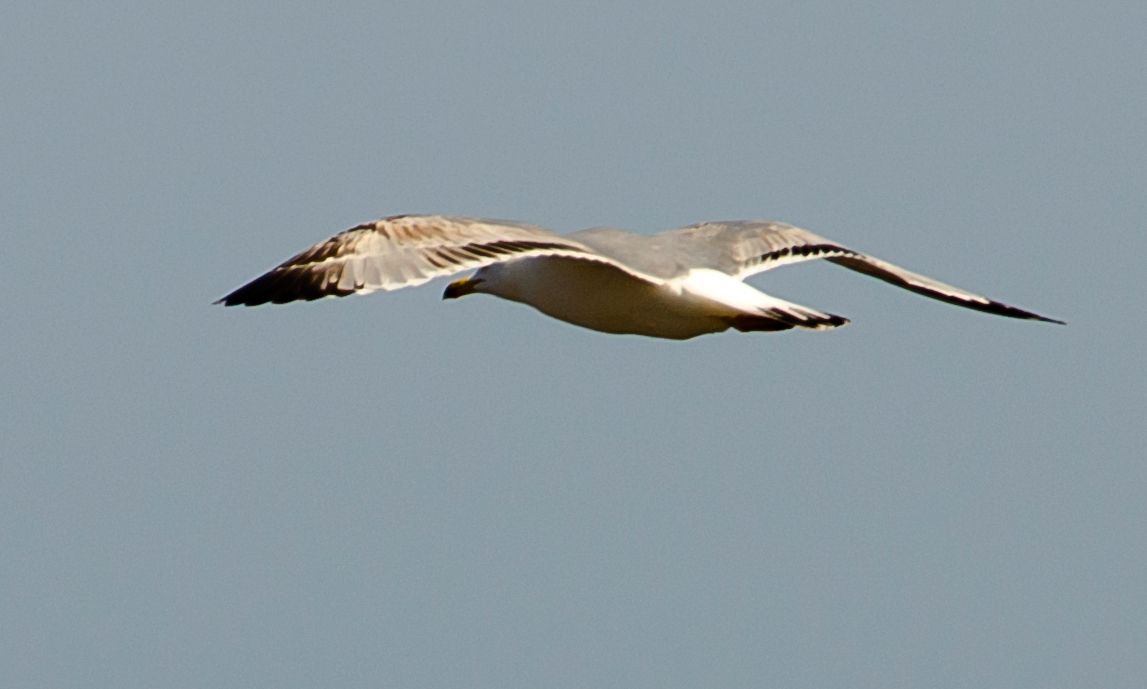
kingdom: Animalia
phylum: Chordata
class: Aves
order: Charadriiformes
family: Laridae
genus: Larus
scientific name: Larus michahellis
